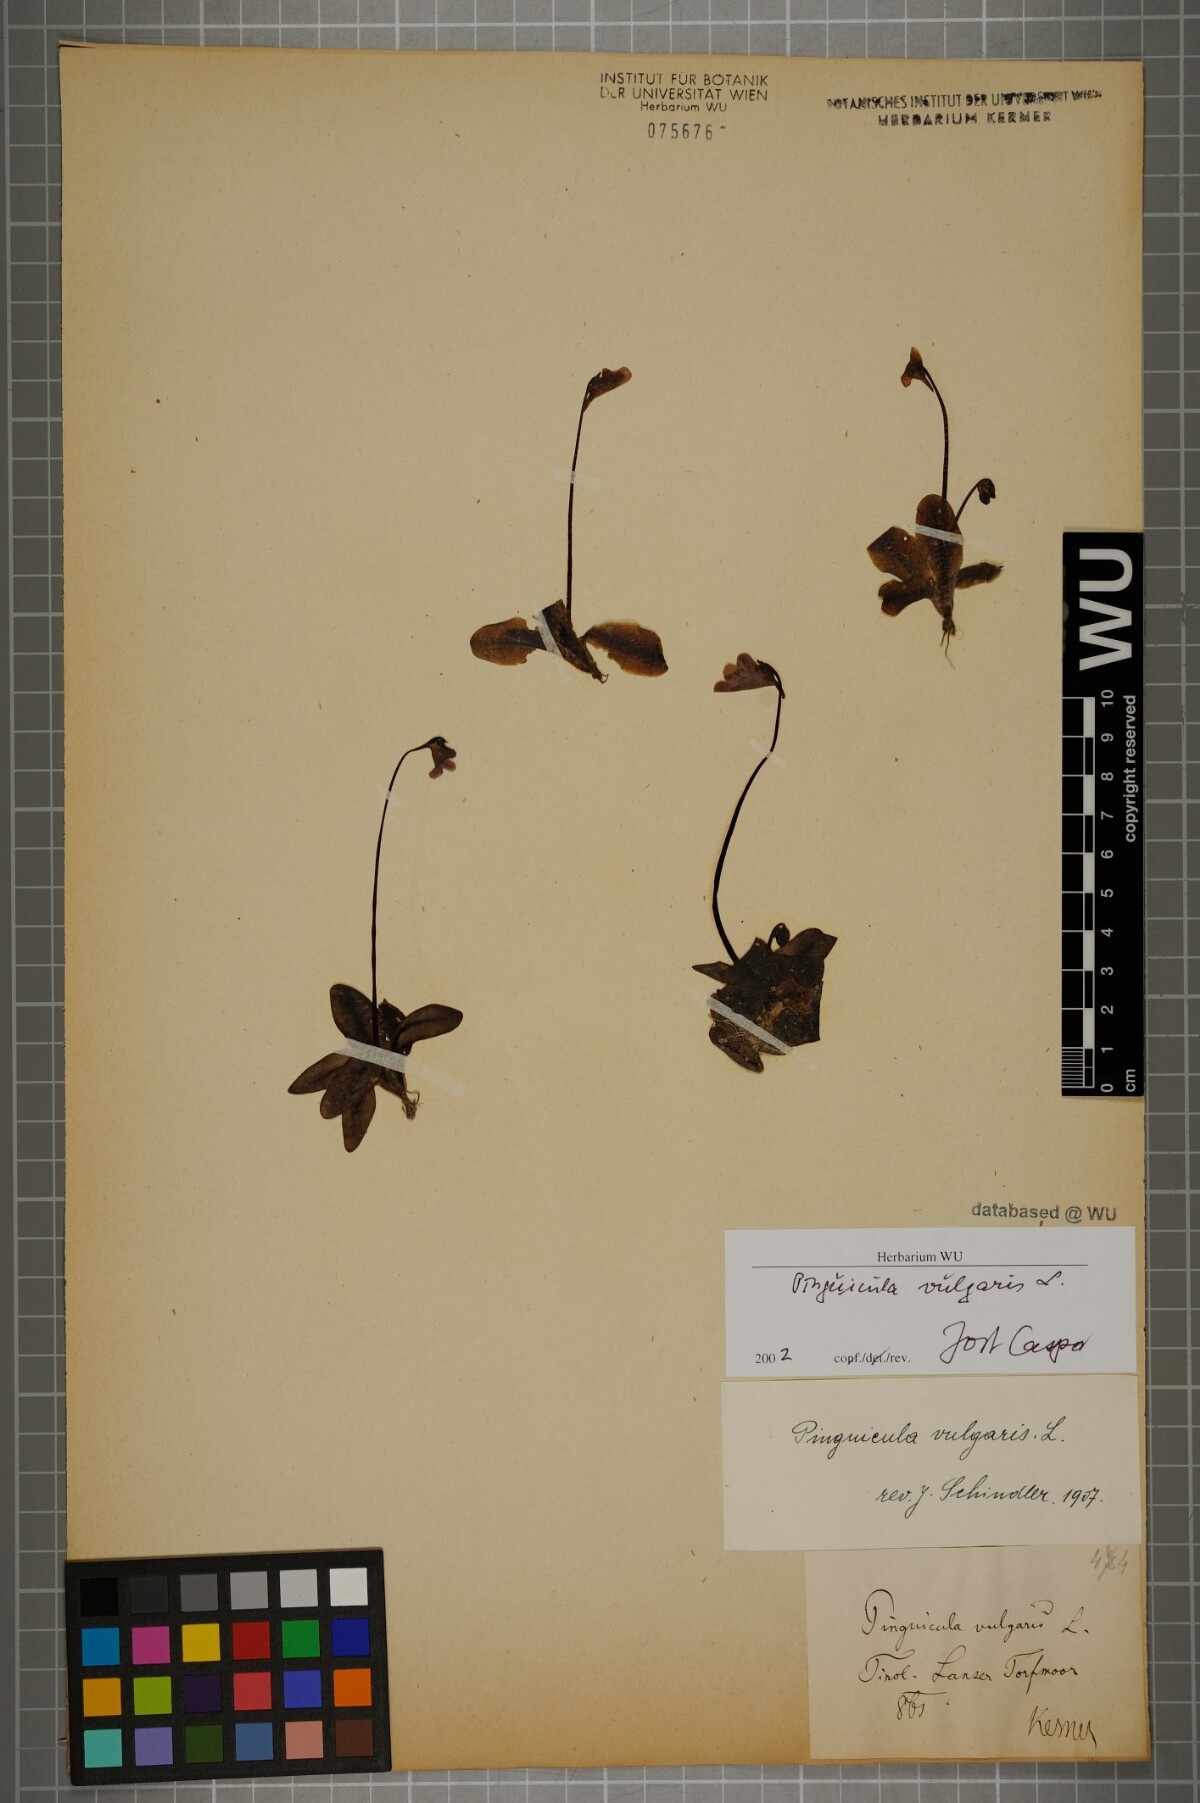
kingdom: Plantae
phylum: Tracheophyta
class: Magnoliopsida
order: Lamiales
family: Lentibulariaceae
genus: Pinguicula
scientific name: Pinguicula vulgaris
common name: Common butterwort
